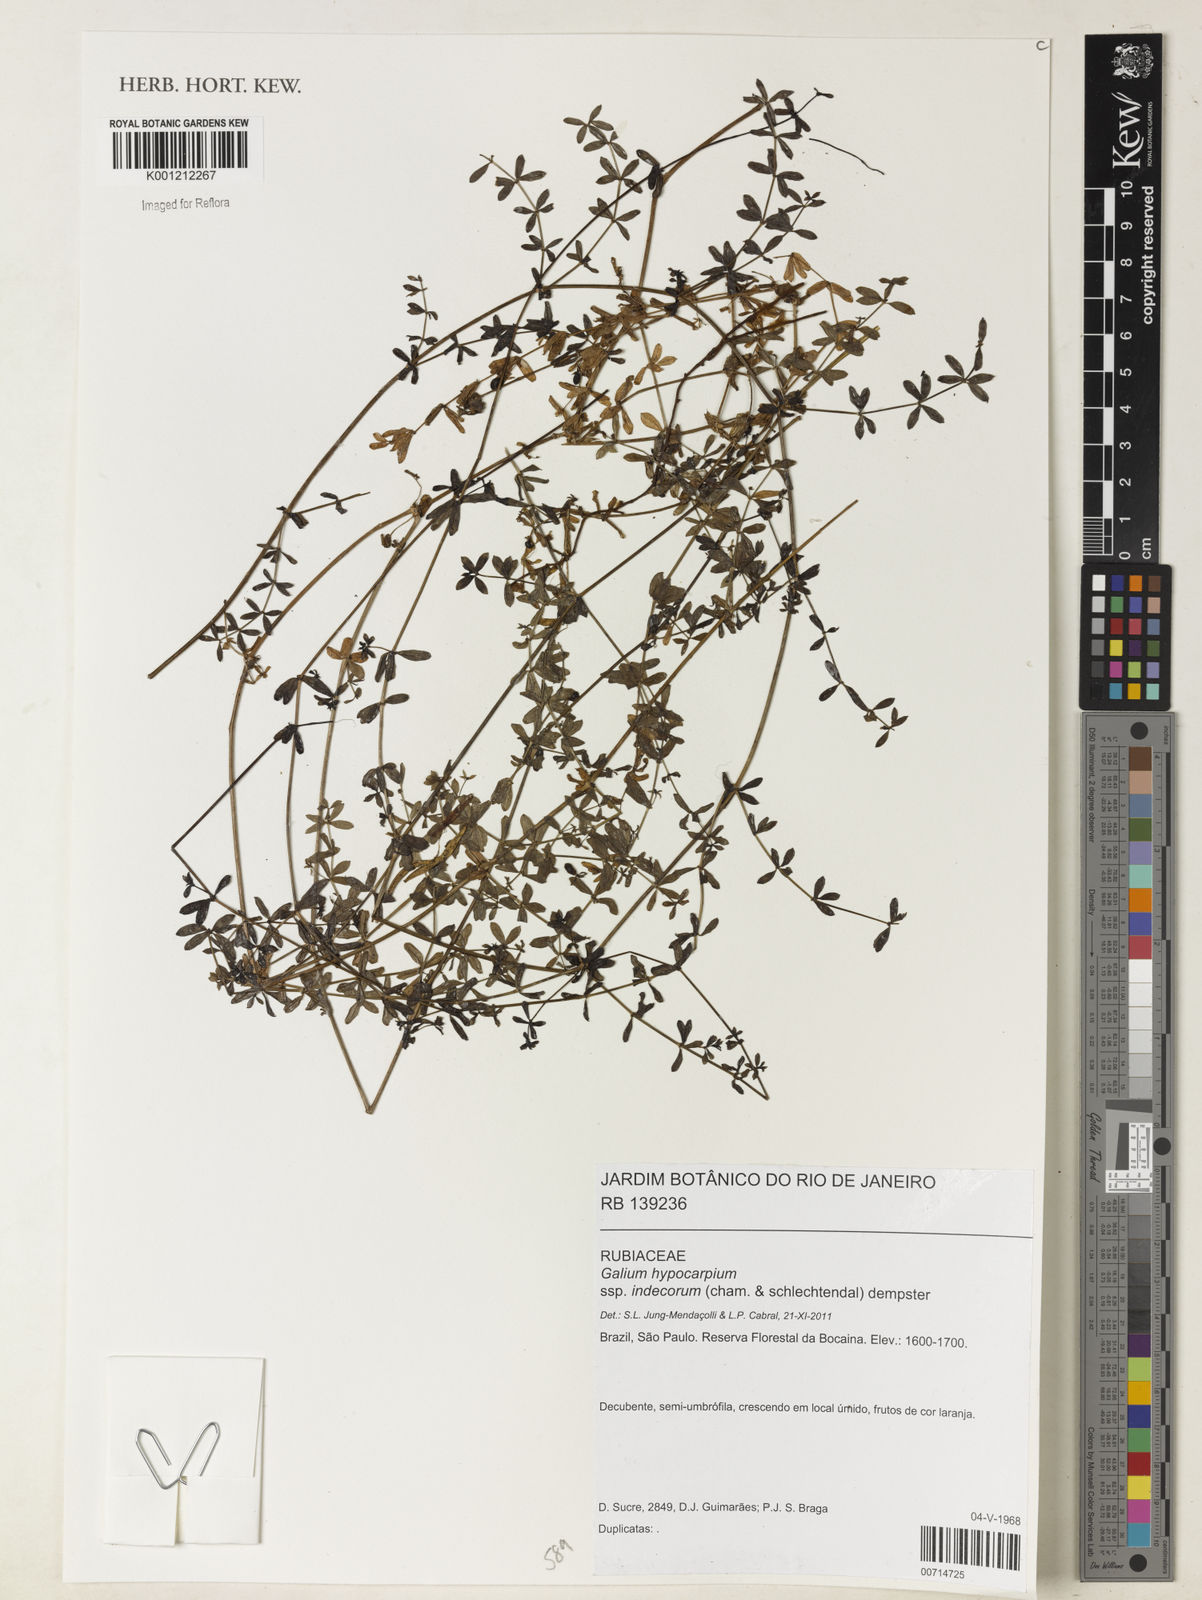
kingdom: Plantae
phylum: Tracheophyta
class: Magnoliopsida
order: Gentianales
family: Rubiaceae
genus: Galium
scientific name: Galium hypocarpium
